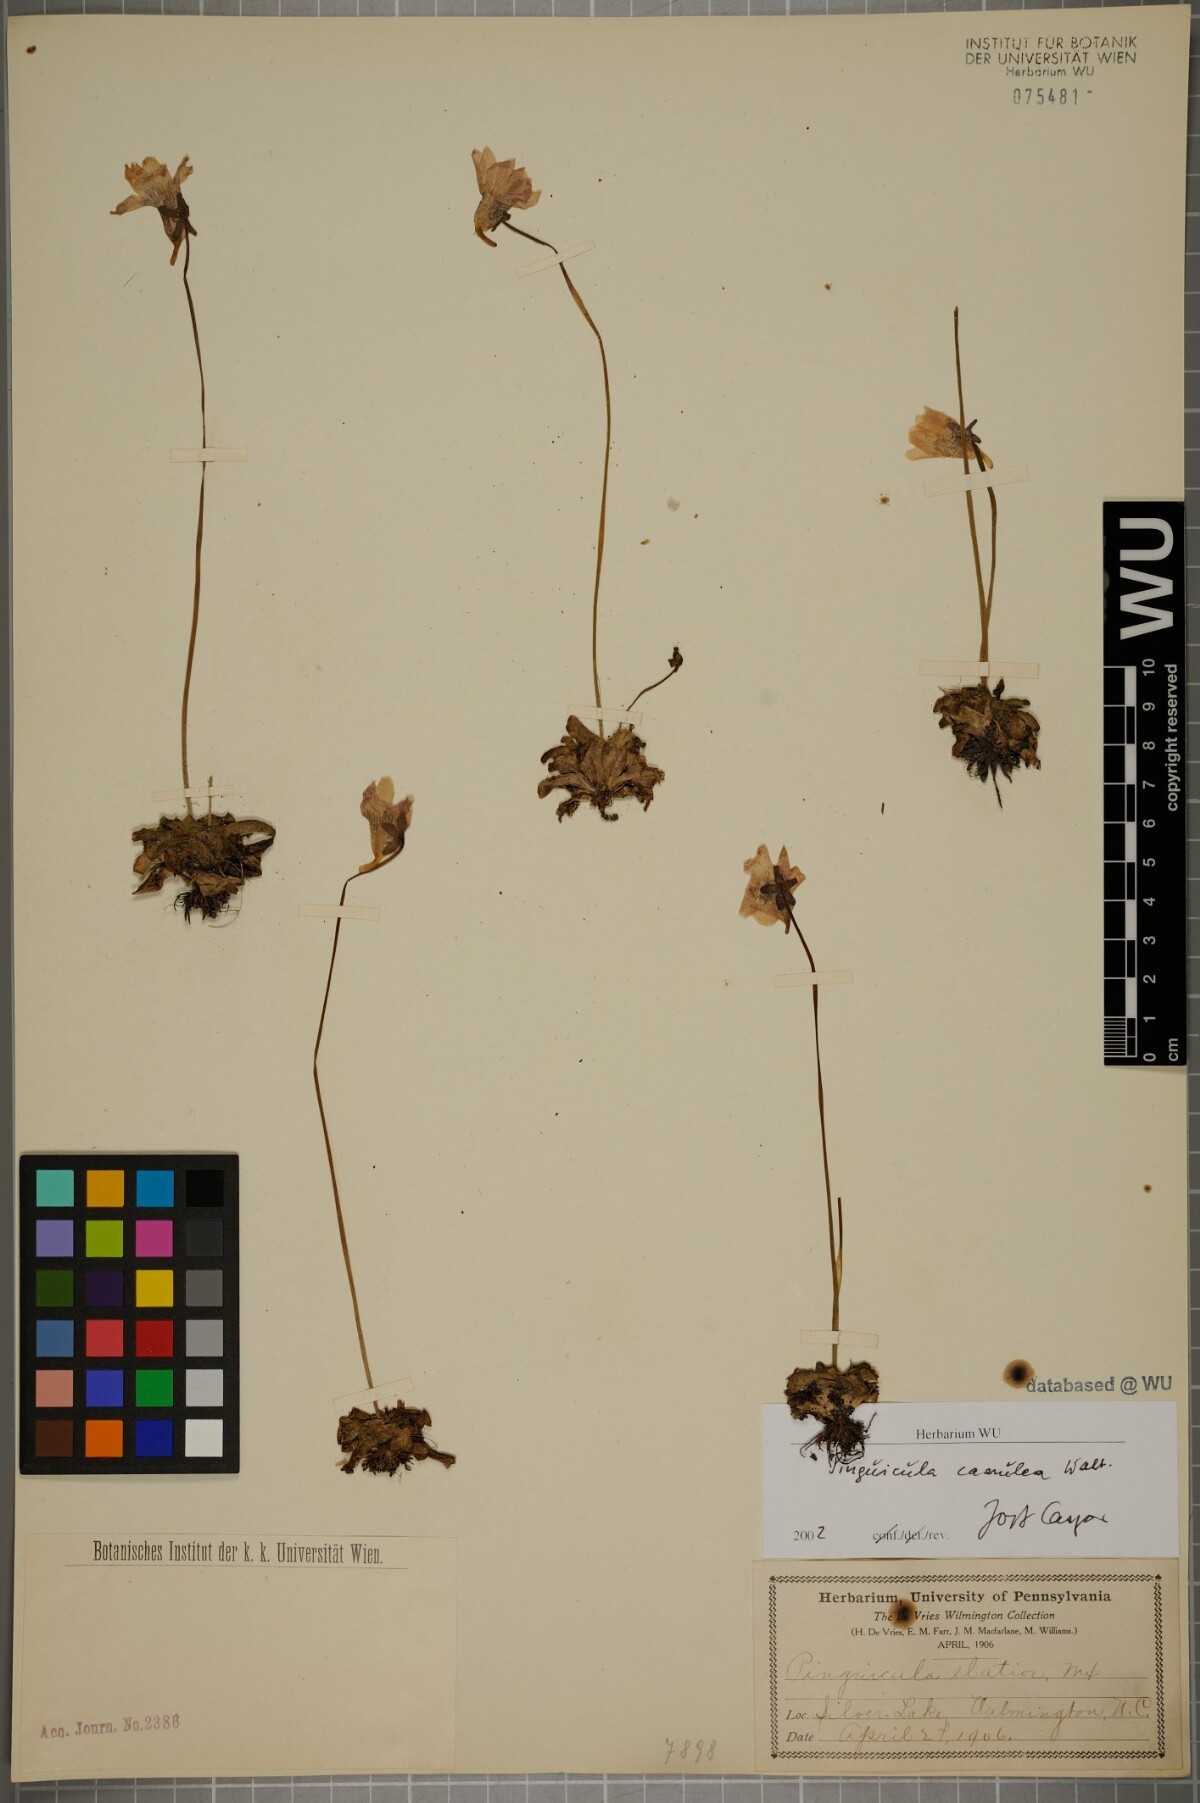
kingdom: Plantae
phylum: Tracheophyta
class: Magnoliopsida
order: Lamiales
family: Lentibulariaceae
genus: Pinguicula
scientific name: Pinguicula caerulea
